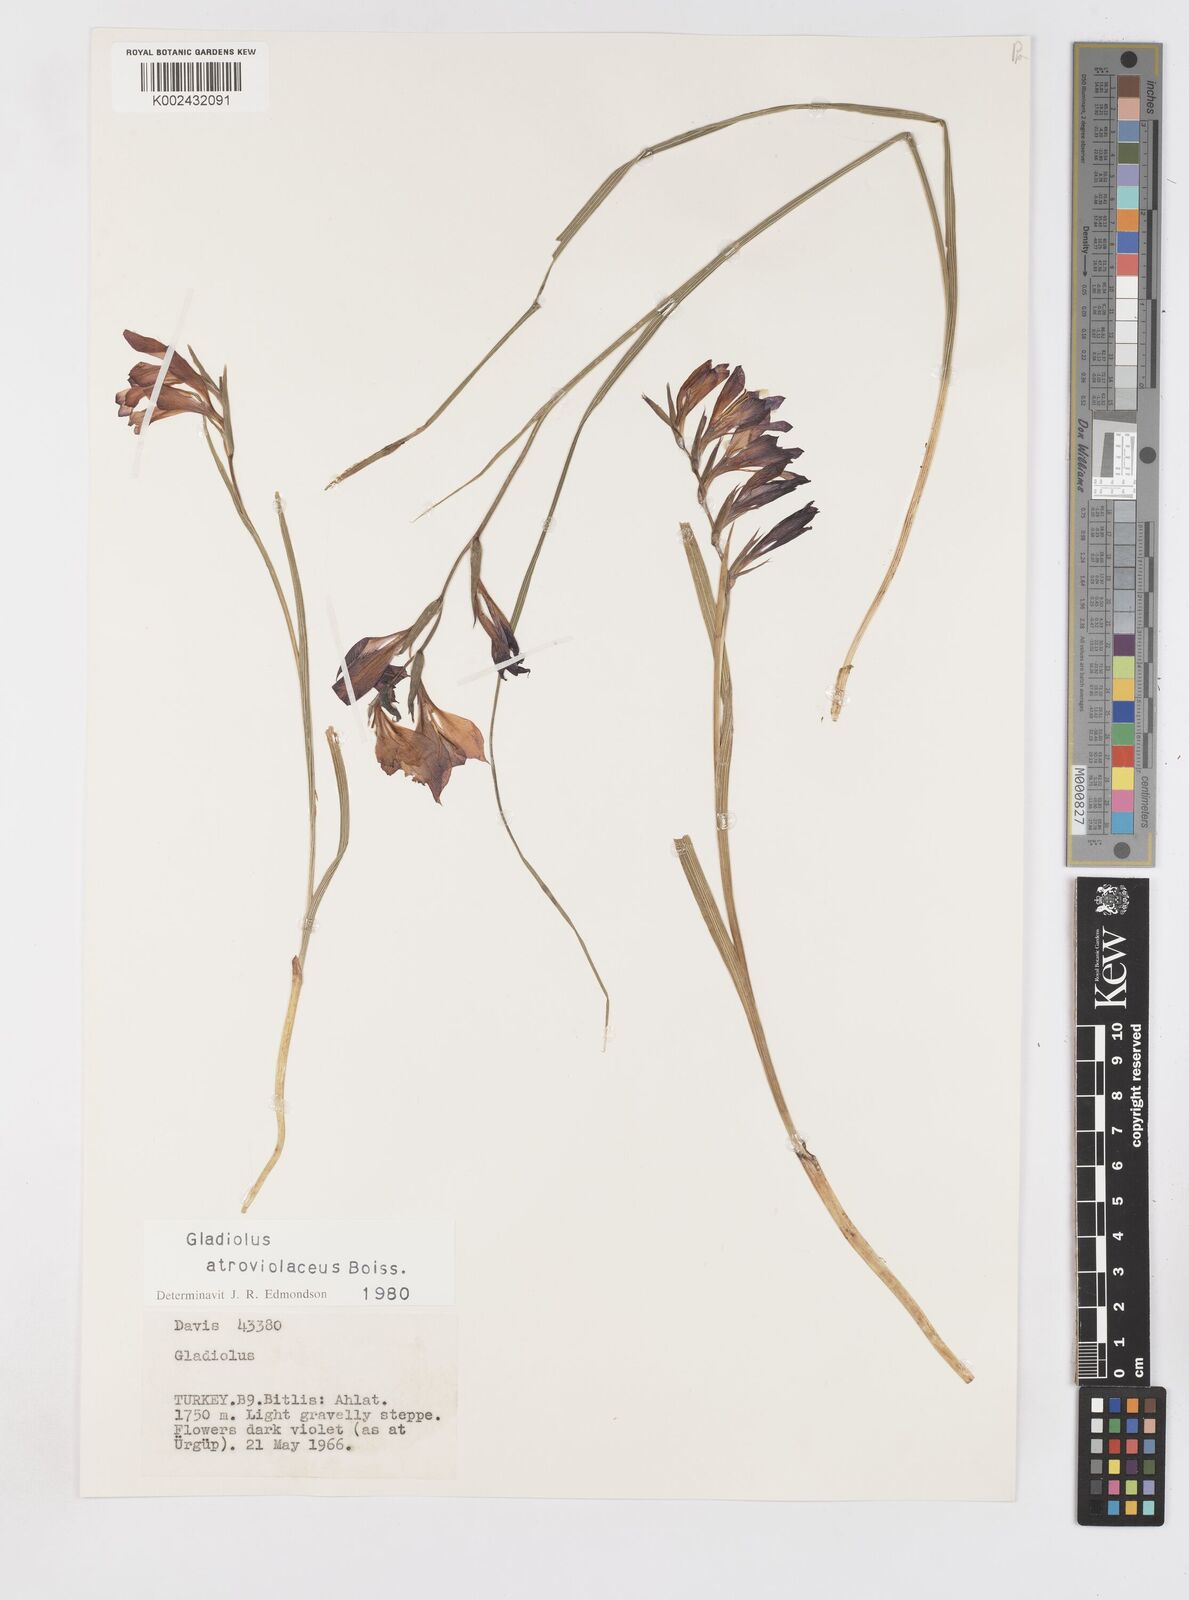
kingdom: Plantae
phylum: Tracheophyta
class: Liliopsida
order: Asparagales
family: Iridaceae
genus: Gladiolus
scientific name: Gladiolus atroviolaceus
